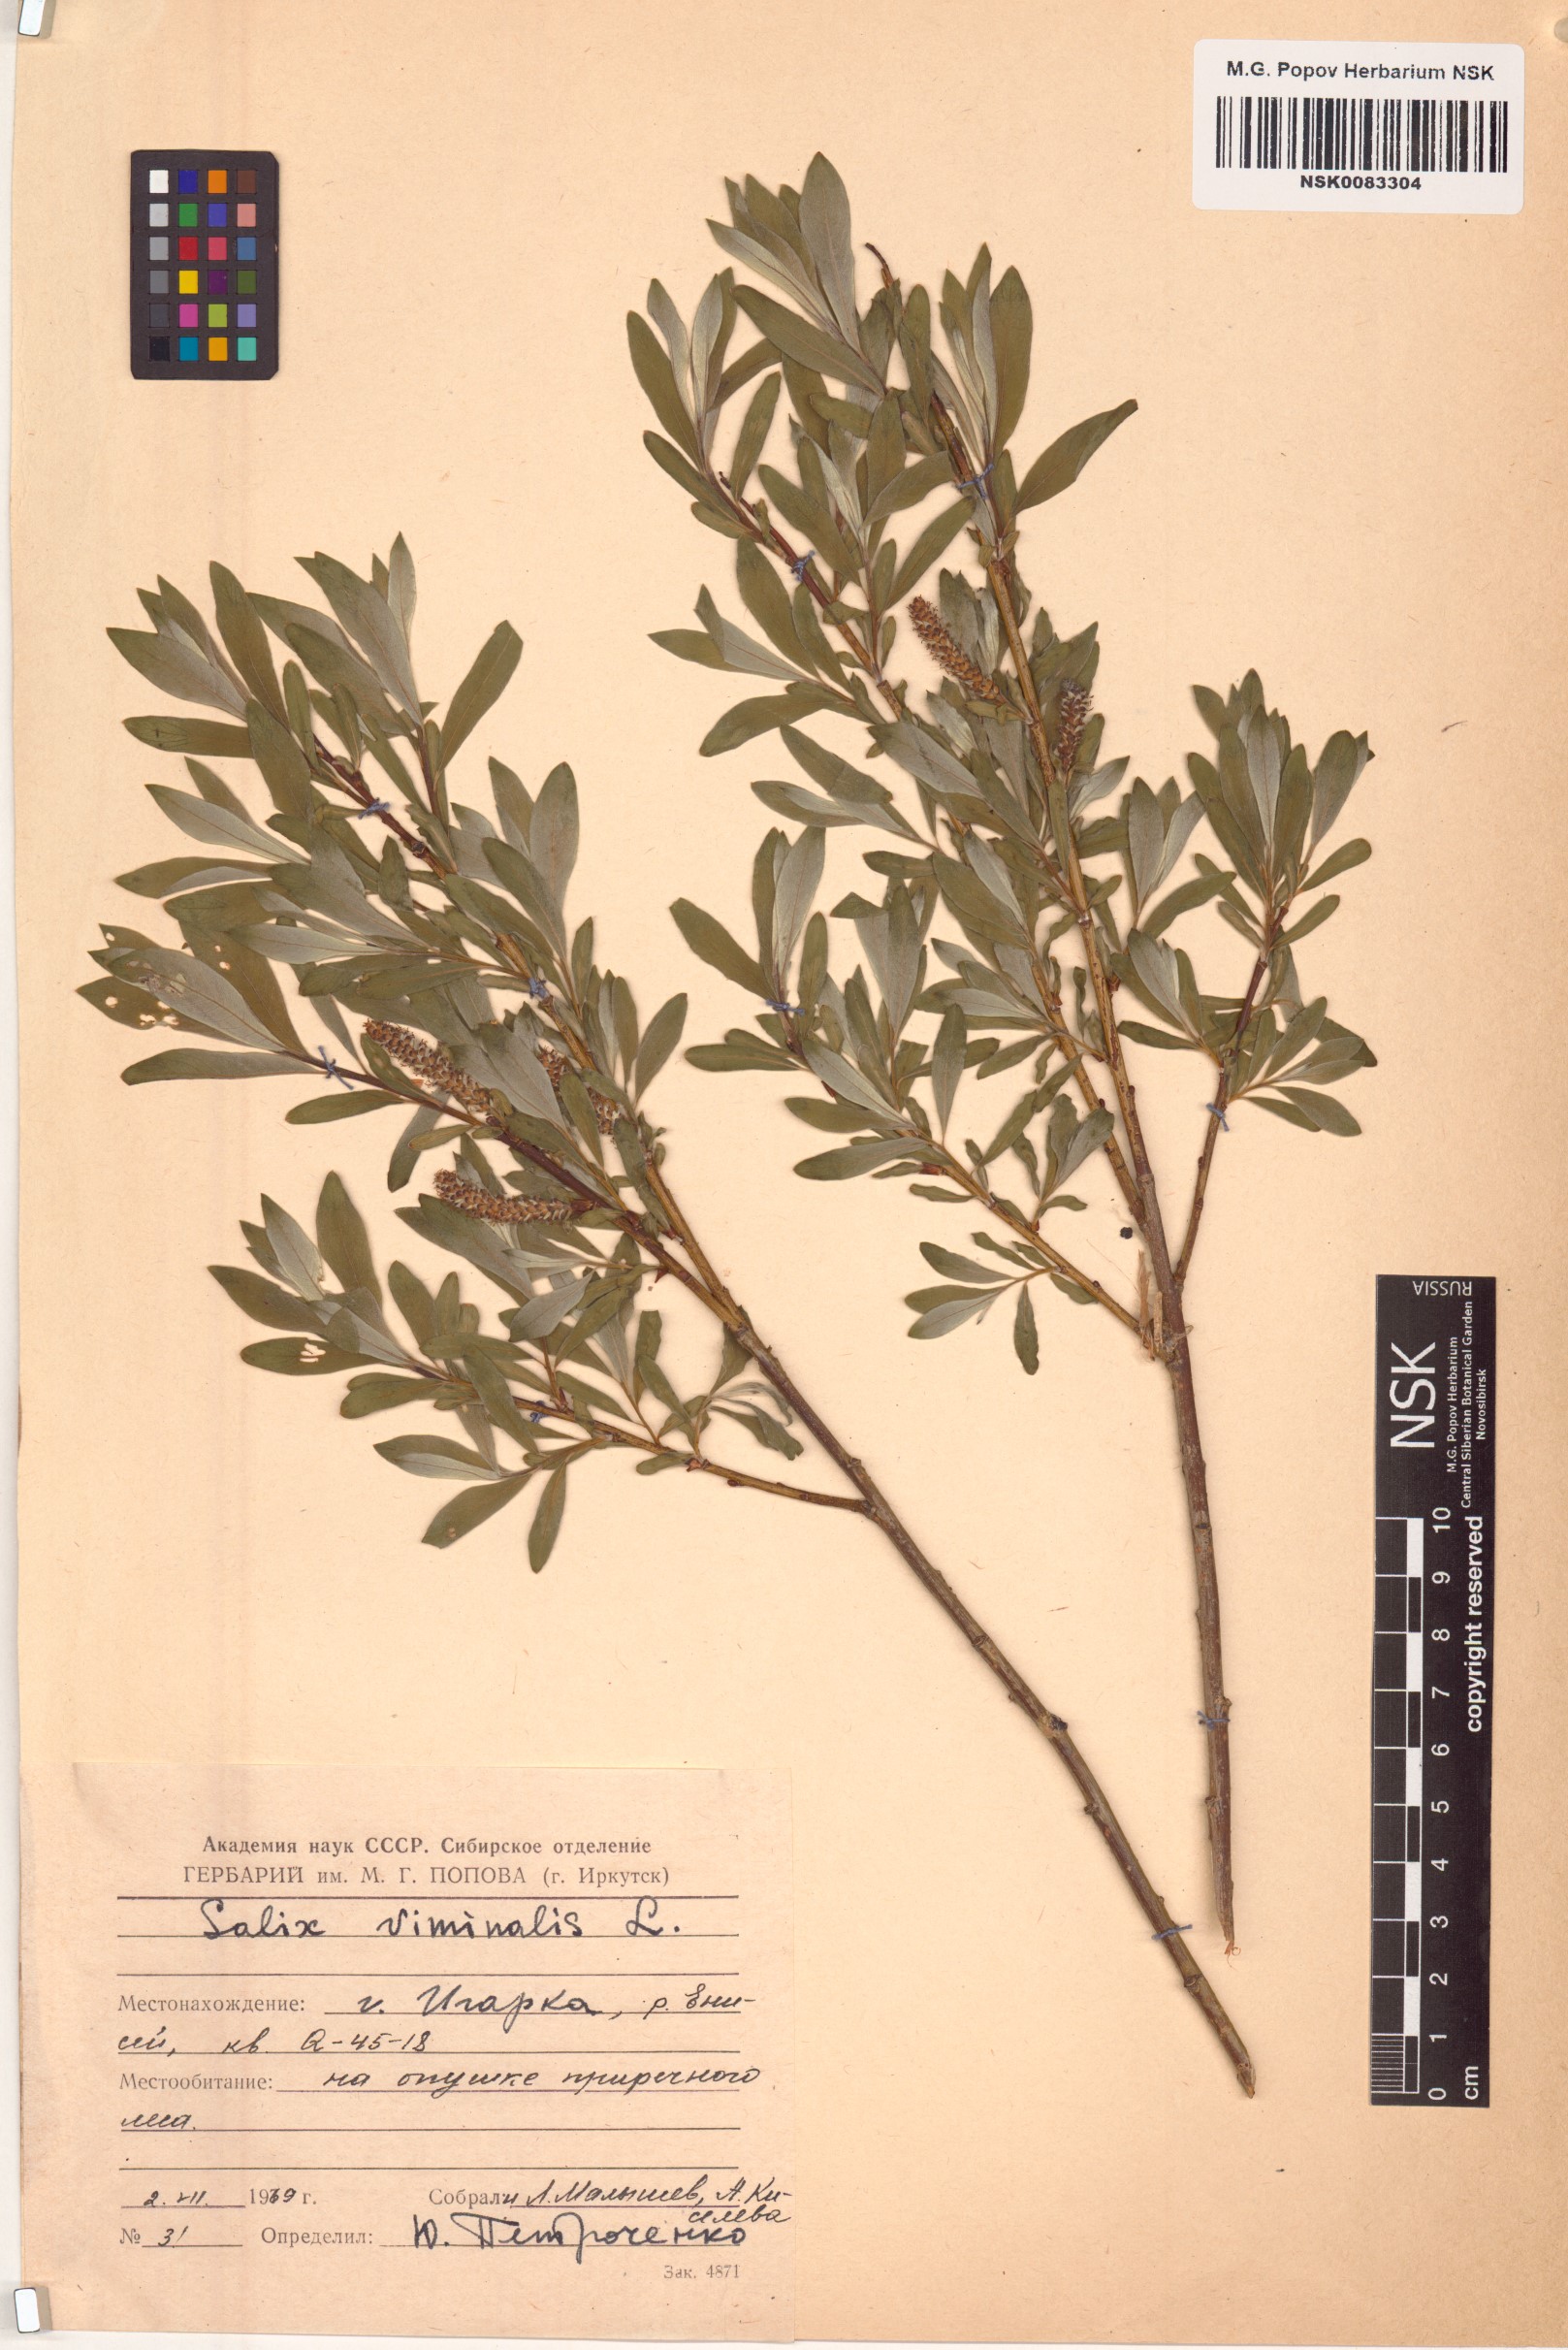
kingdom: Plantae
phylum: Tracheophyta
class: Magnoliopsida
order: Malpighiales
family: Salicaceae
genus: Salix
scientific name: Salix viminalis
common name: Osier
